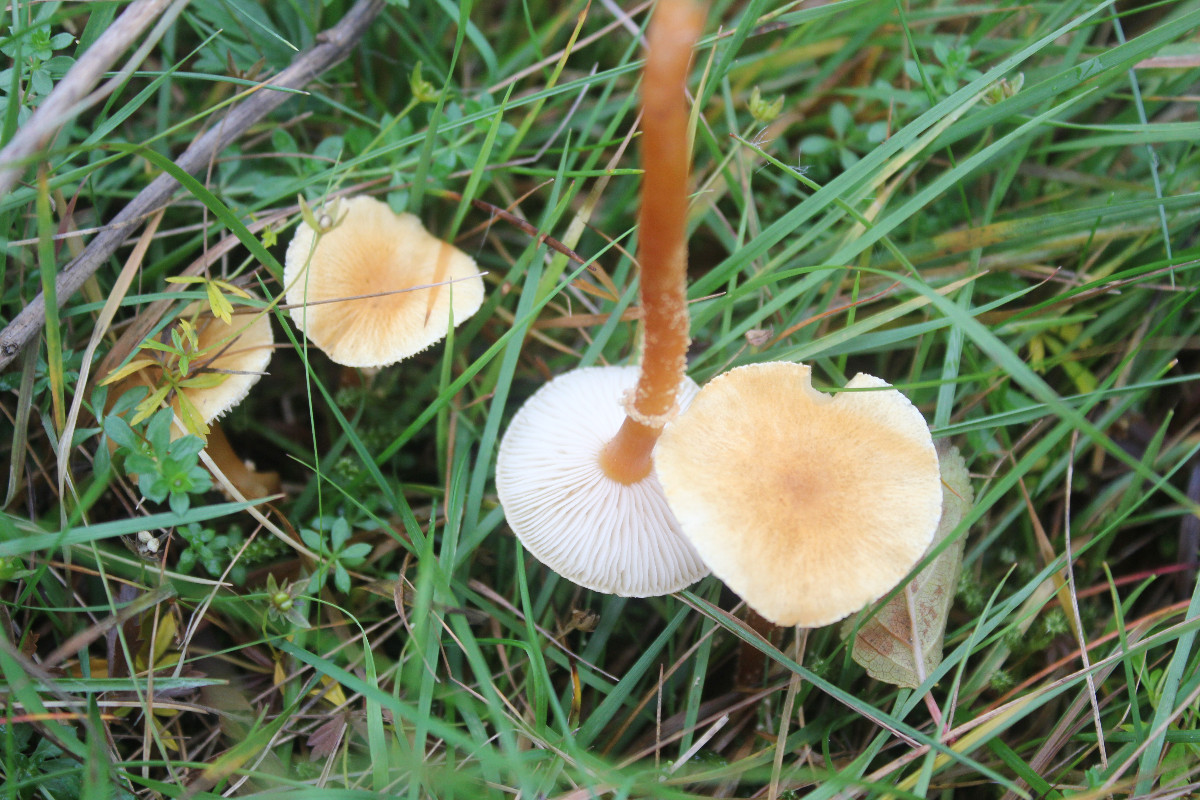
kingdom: Fungi
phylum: Basidiomycota
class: Agaricomycetes
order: Agaricales
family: Tricholomataceae
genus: Cystoderma
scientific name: Cystoderma amianthinum
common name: okkergul grynhat
